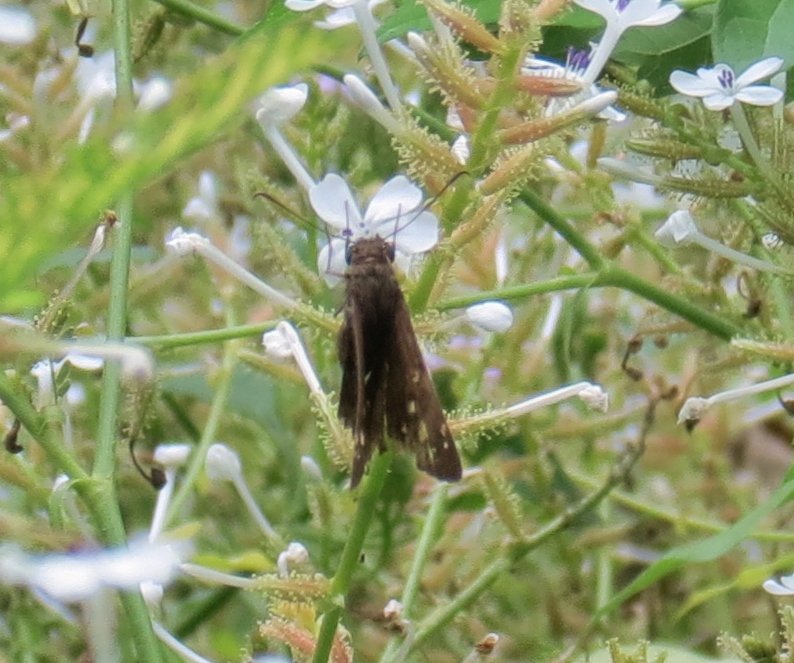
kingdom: Animalia
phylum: Arthropoda
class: Insecta
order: Lepidoptera
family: Hesperiidae
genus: Urbanus
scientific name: Urbanus procne
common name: Brown Longtail
